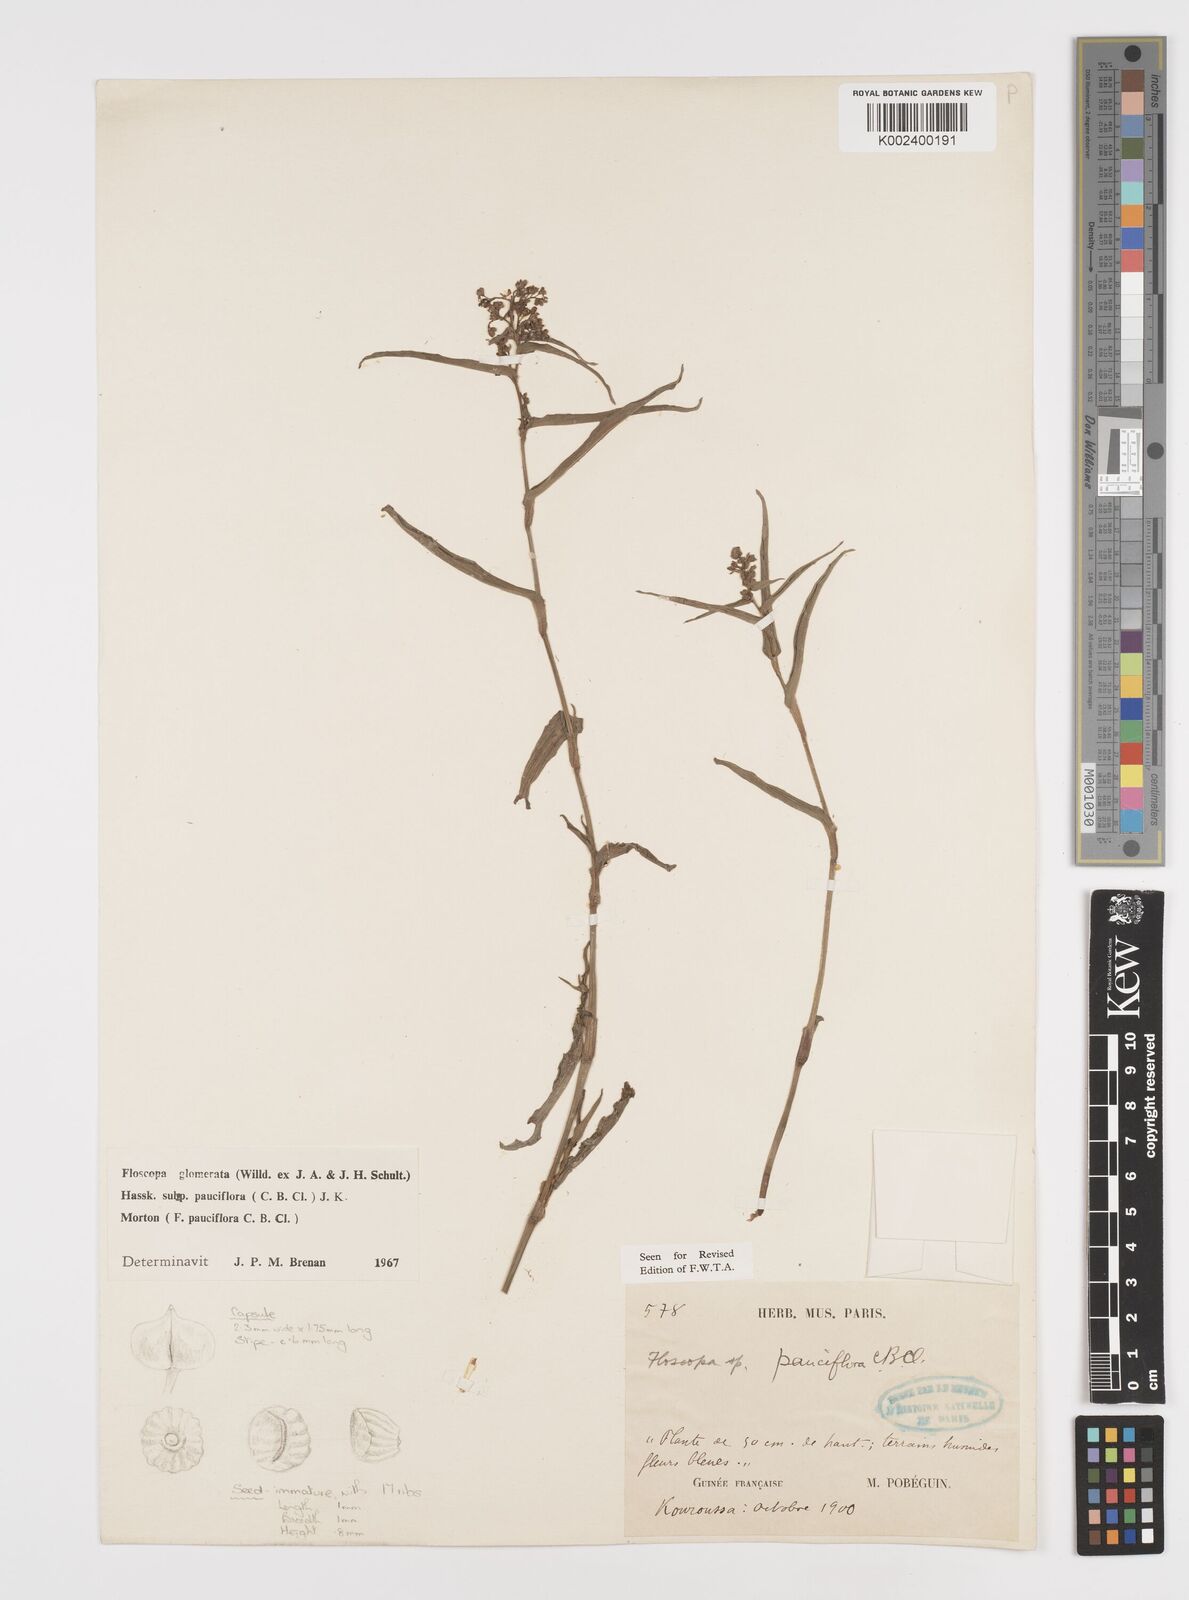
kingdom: Plantae
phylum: Tracheophyta
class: Liliopsida
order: Commelinales
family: Commelinaceae
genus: Floscopa
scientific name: Floscopa glomerata
